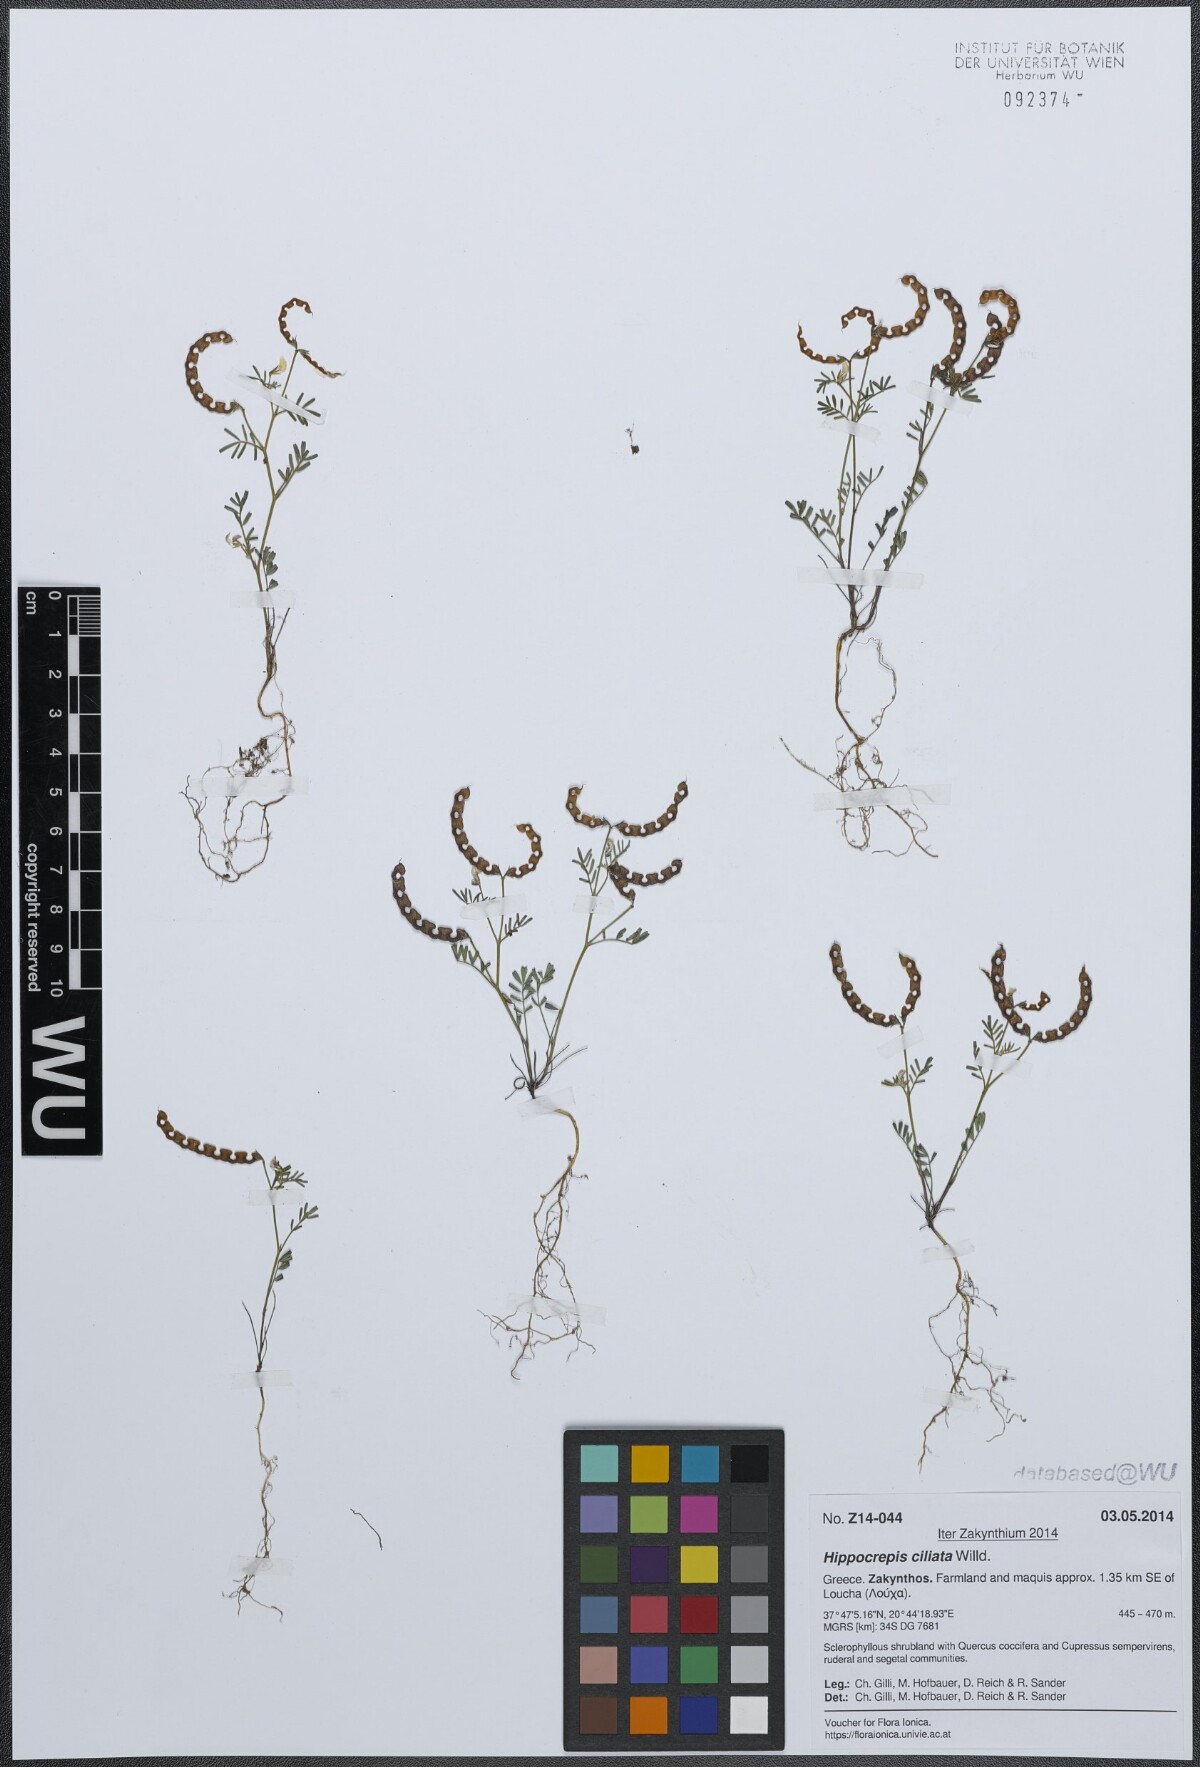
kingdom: Plantae
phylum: Tracheophyta
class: Magnoliopsida
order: Fabales
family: Fabaceae
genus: Hippocrepis
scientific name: Hippocrepis ciliata
